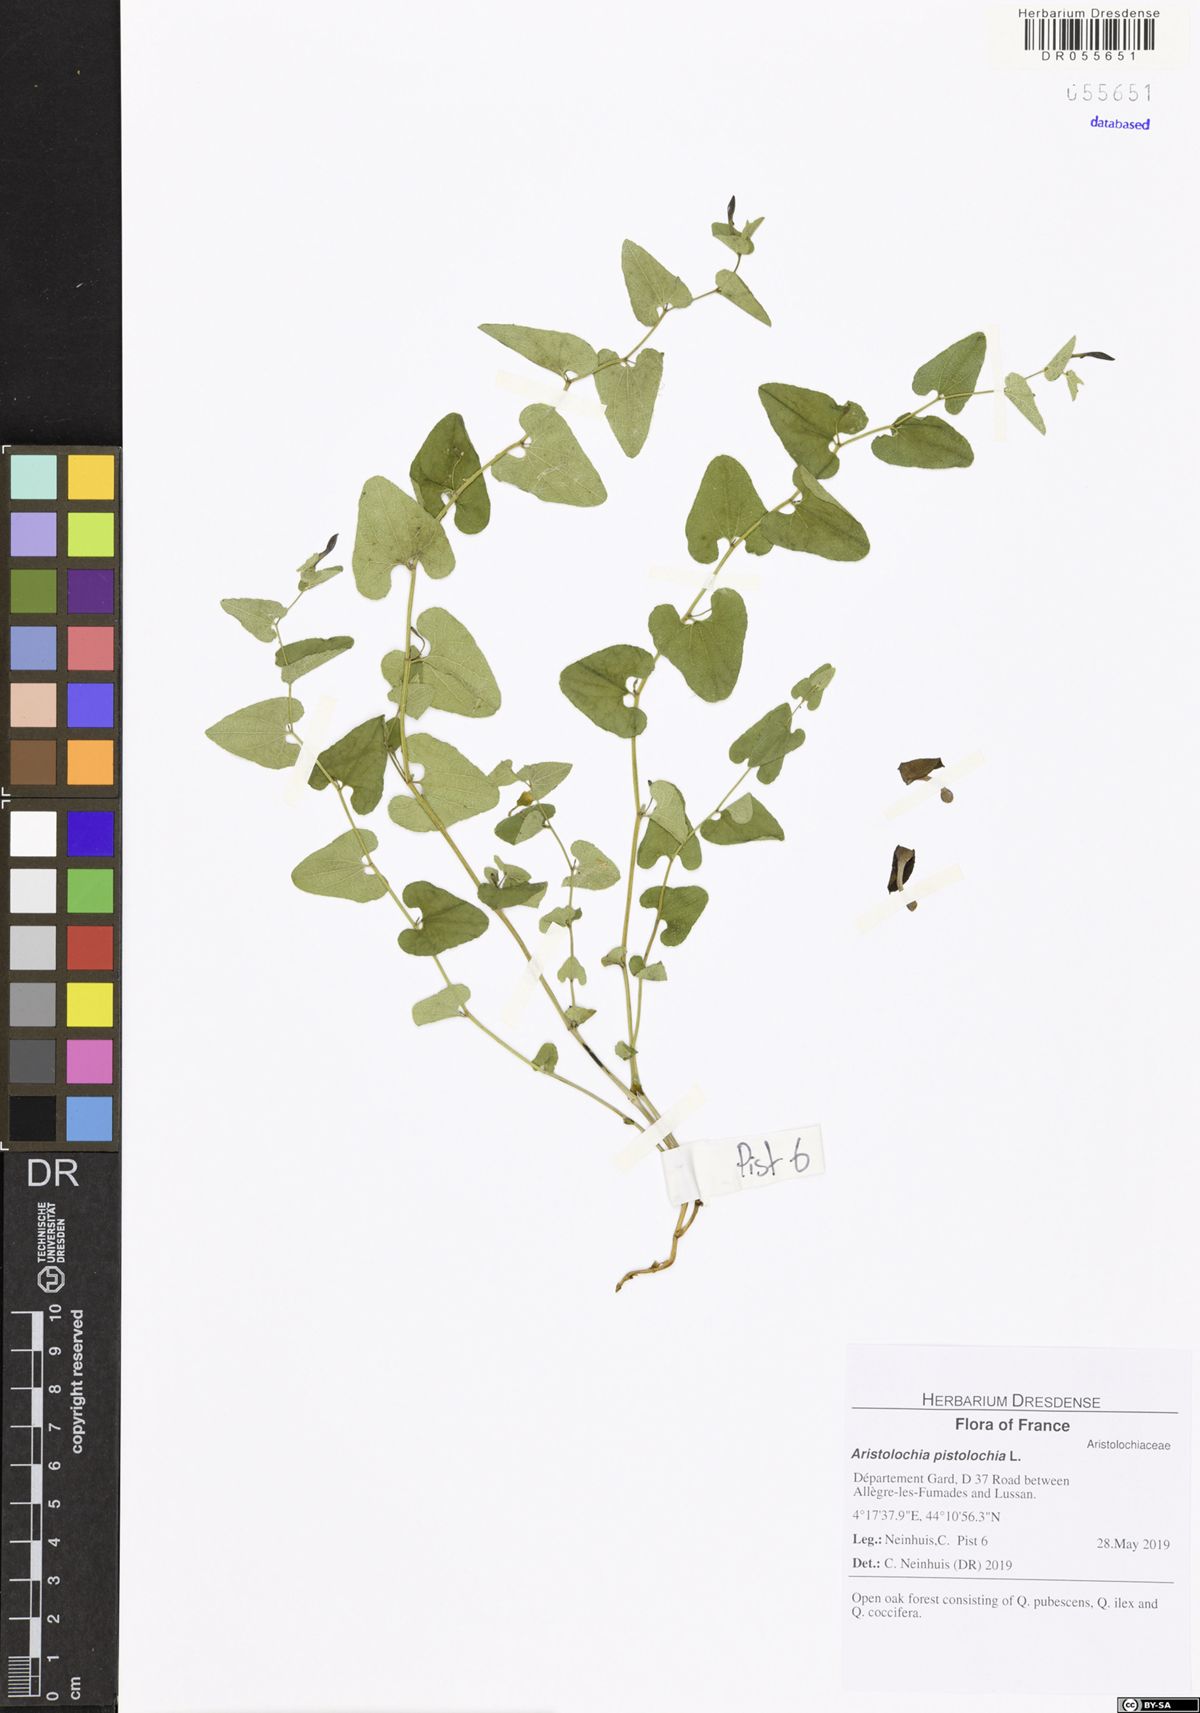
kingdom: Plantae
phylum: Tracheophyta
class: Magnoliopsida
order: Piperales
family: Aristolochiaceae
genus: Aristolochia
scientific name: Aristolochia pistolochia
